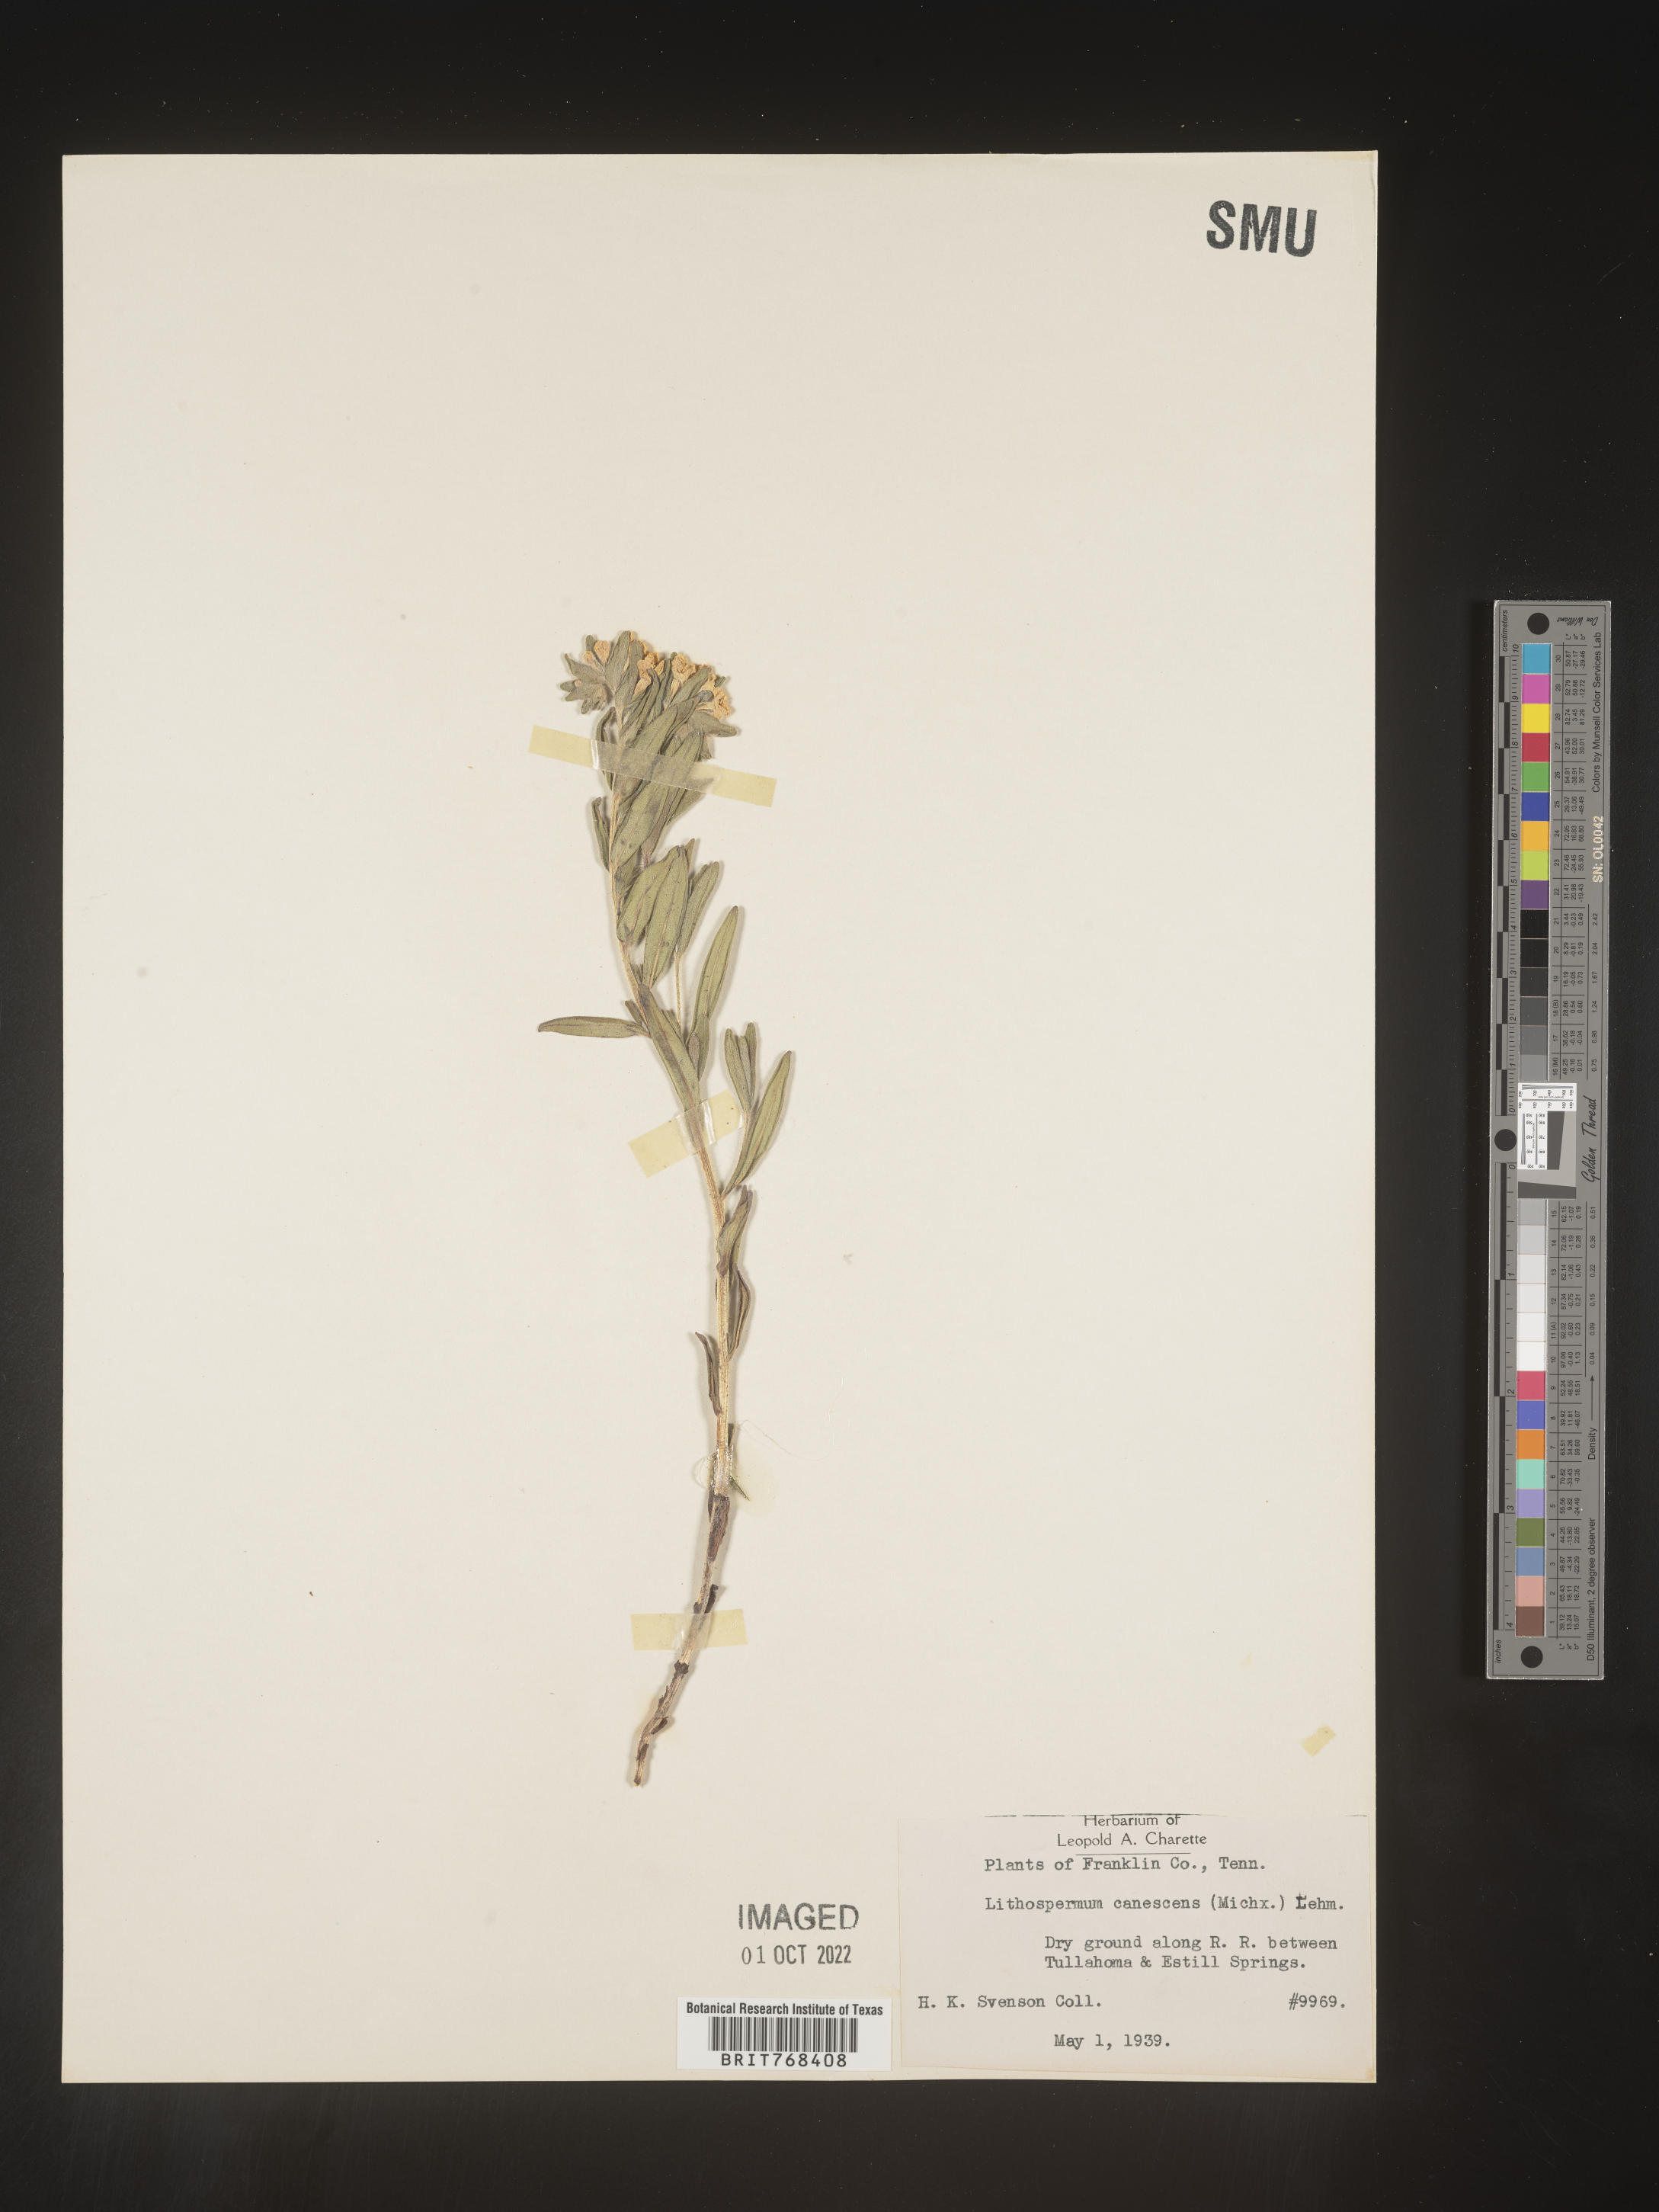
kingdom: Plantae
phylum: Tracheophyta
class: Magnoliopsida
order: Boraginales
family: Boraginaceae
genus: Lithospermum
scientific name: Lithospermum canescens
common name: Hoary puccoon
